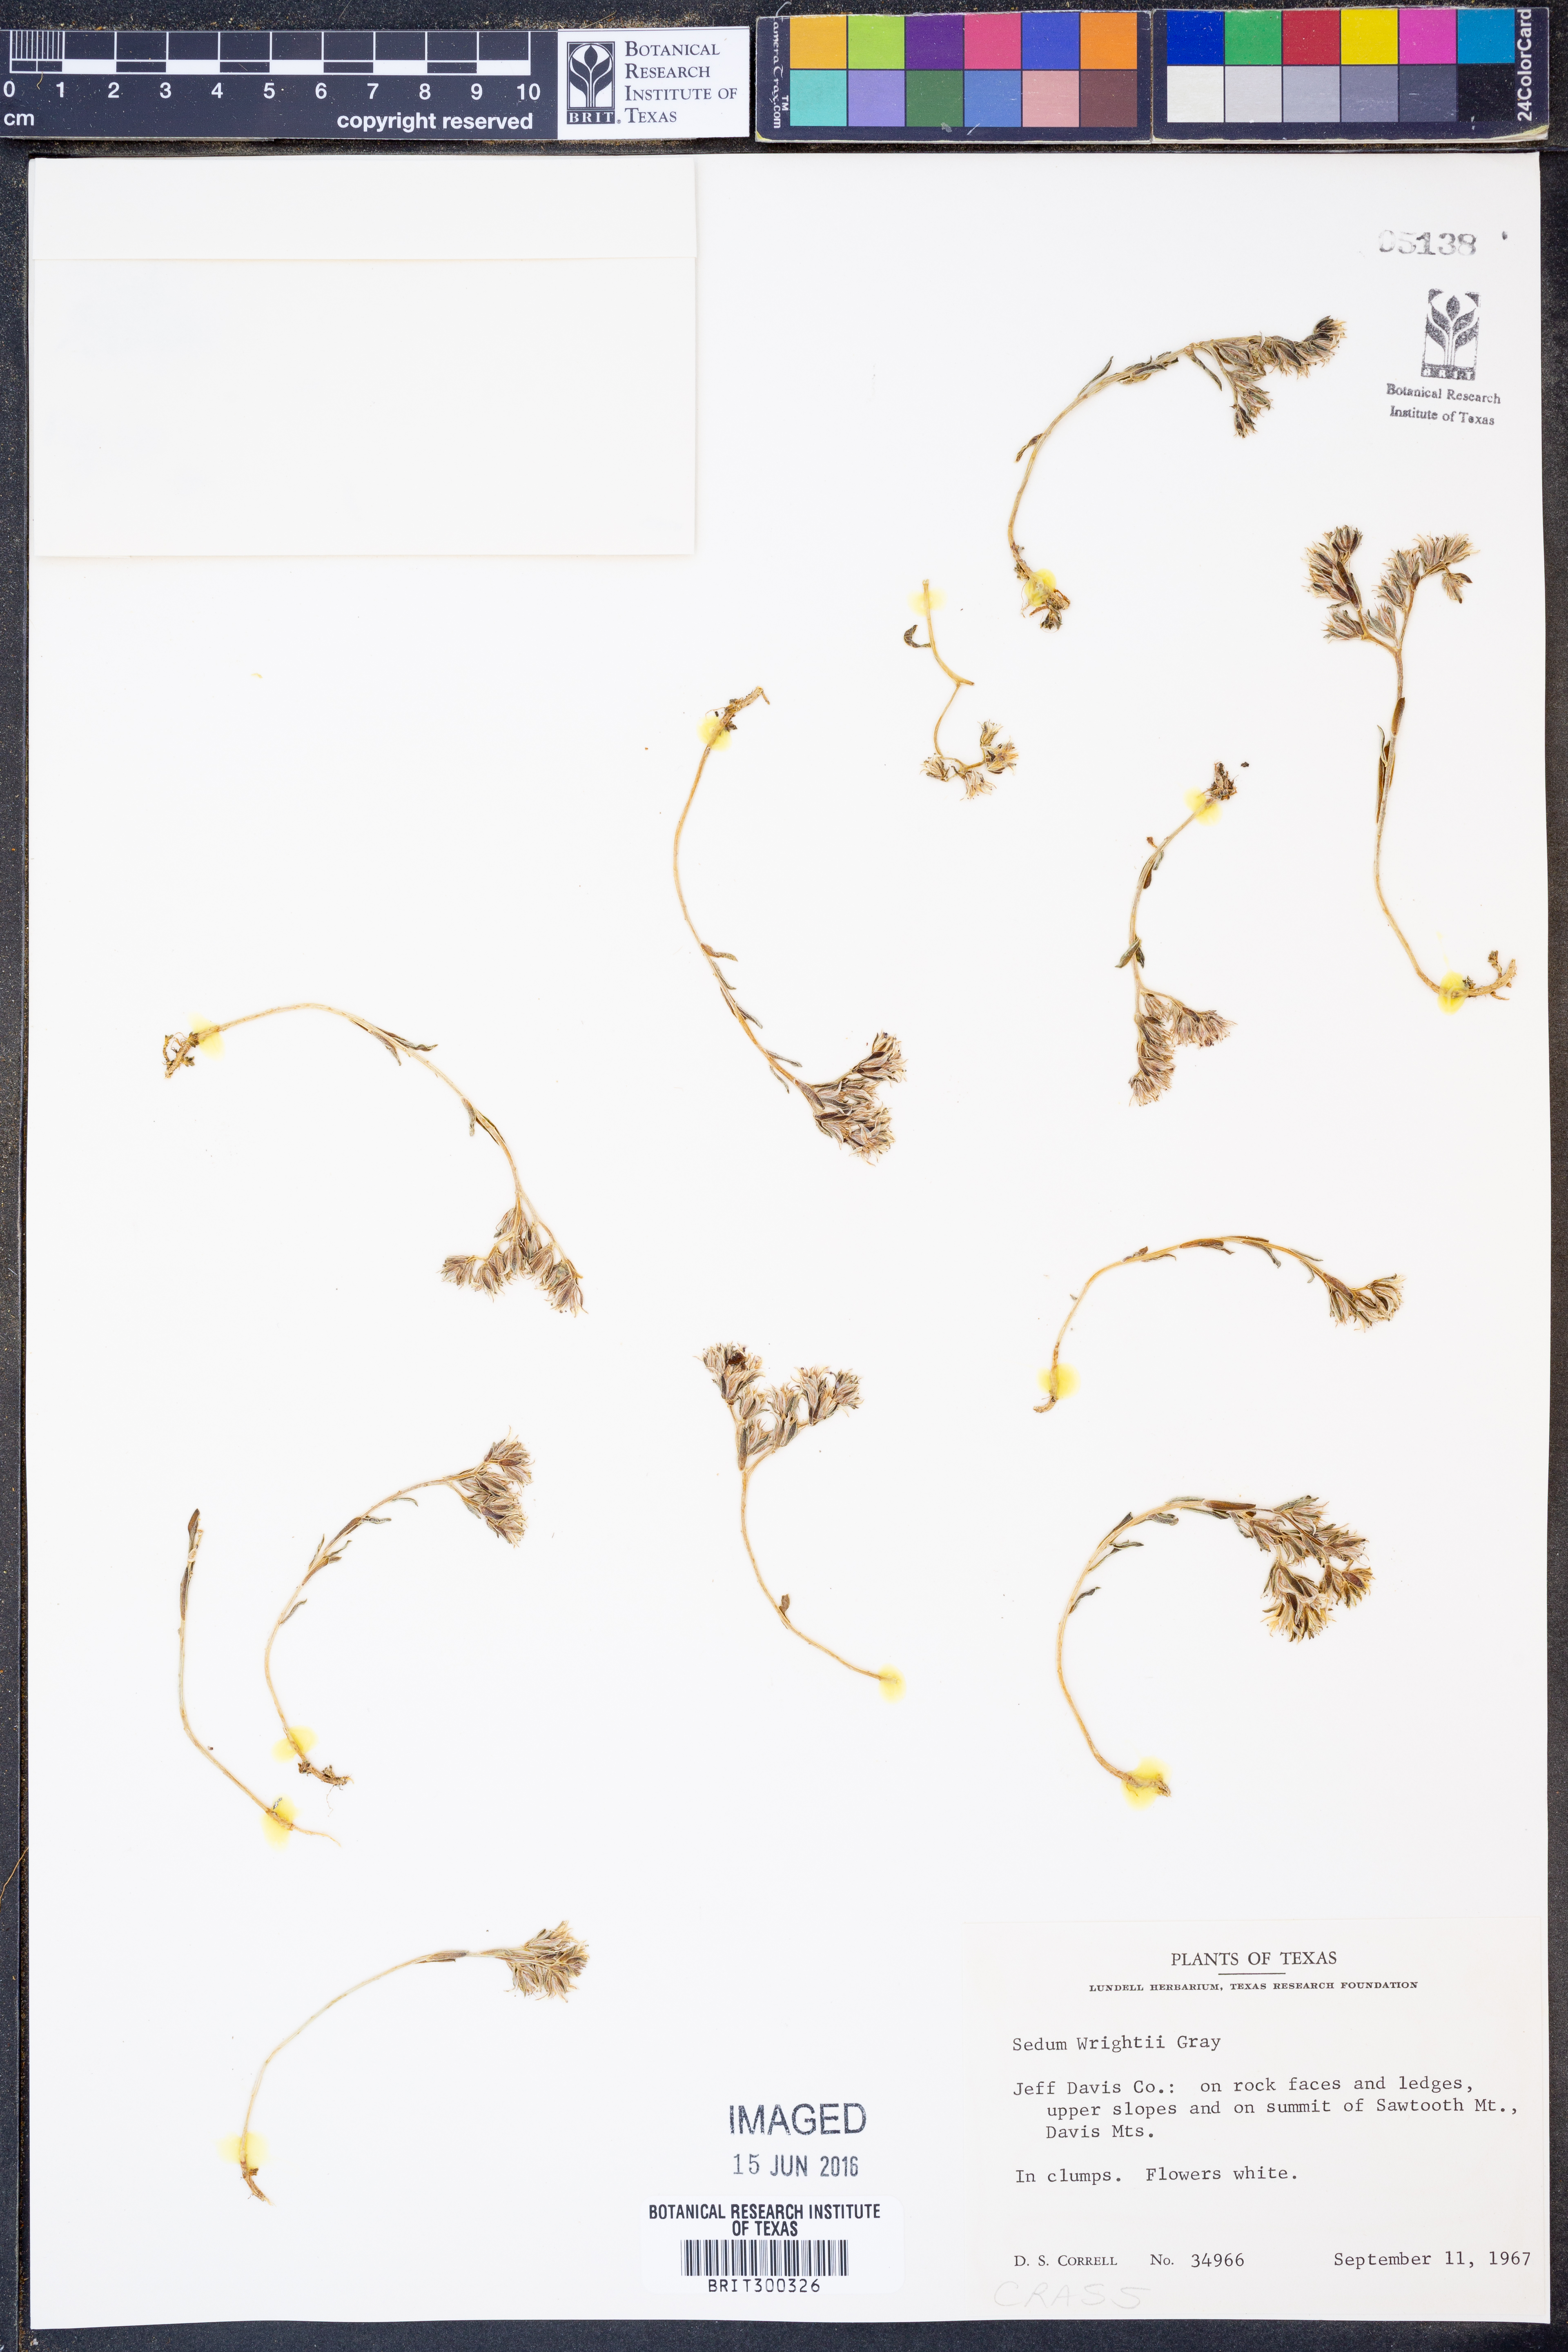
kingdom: Plantae
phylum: Tracheophyta
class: Magnoliopsida
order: Saxifragales
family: Crassulaceae
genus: Sedum
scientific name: Sedum wrightii
